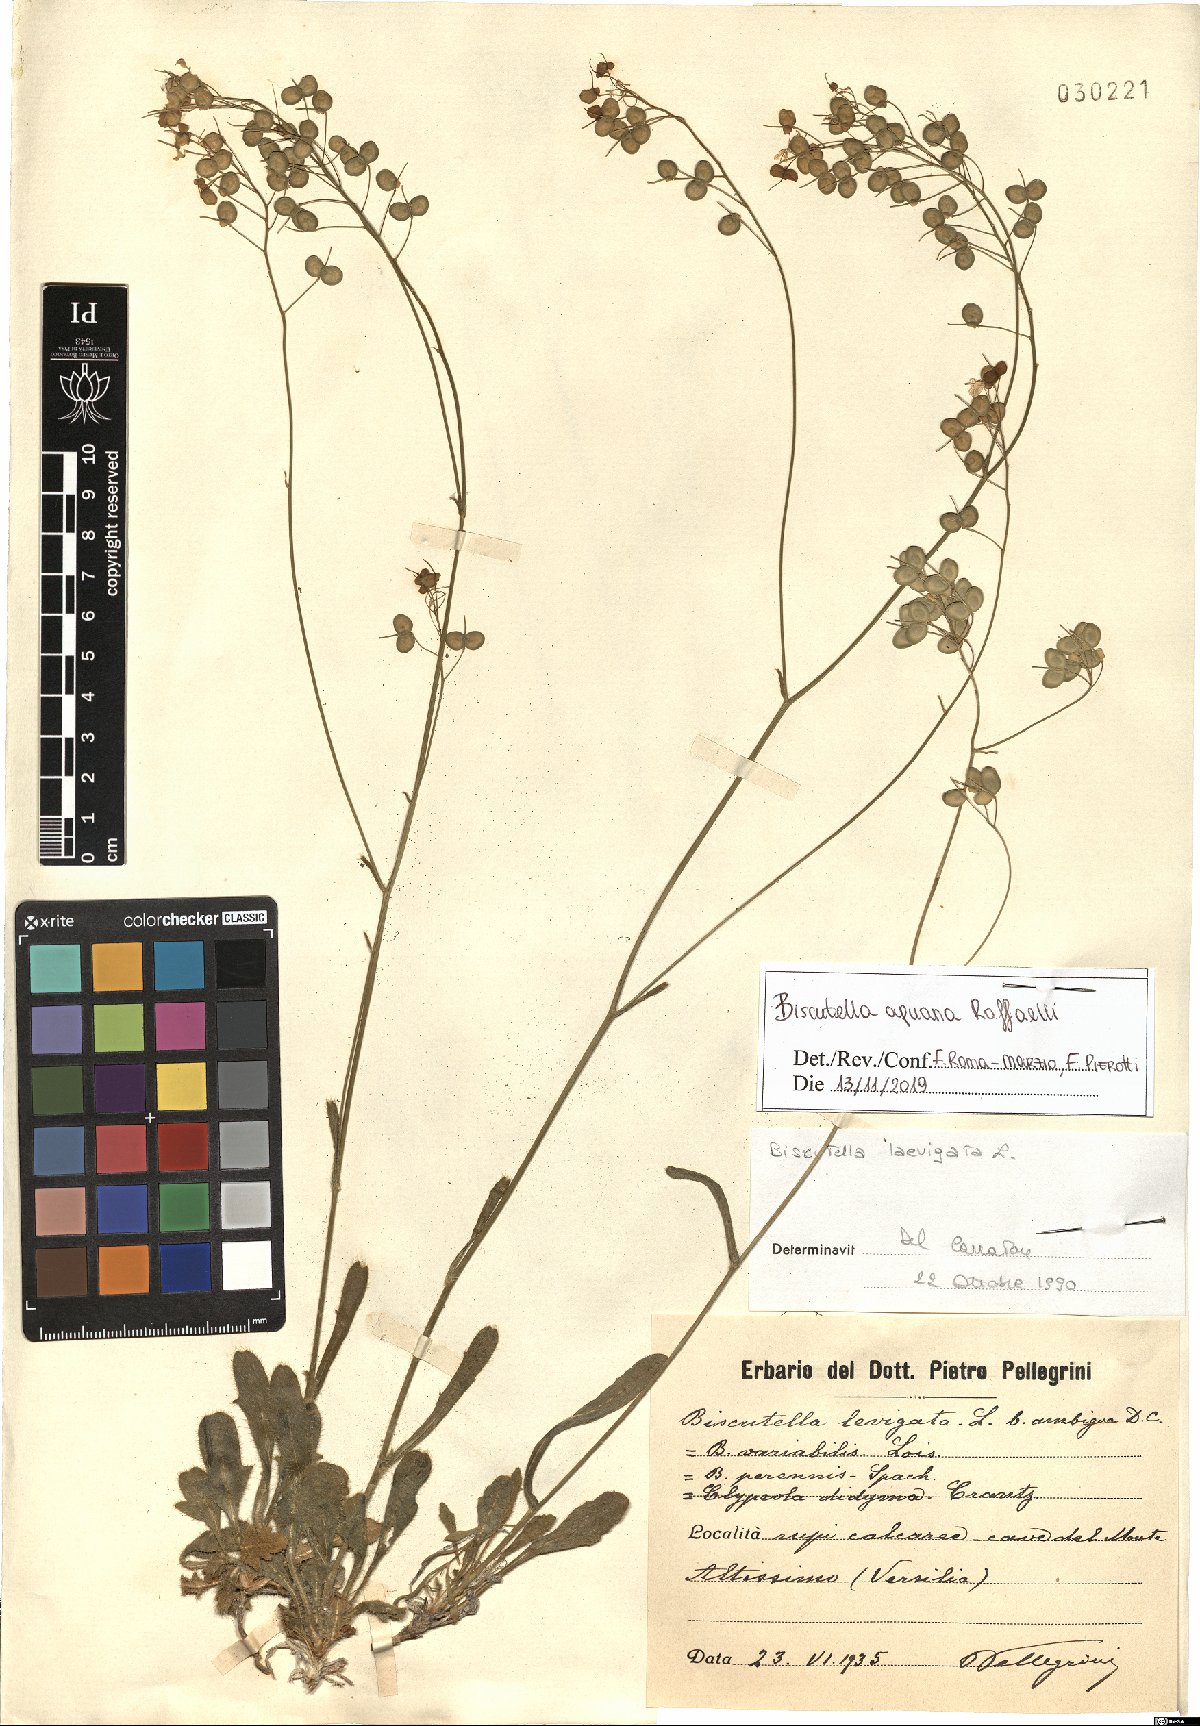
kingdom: Plantae
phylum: Tracheophyta
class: Magnoliopsida
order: Brassicales
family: Brassicaceae
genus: Biscutella
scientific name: Biscutella apuana
